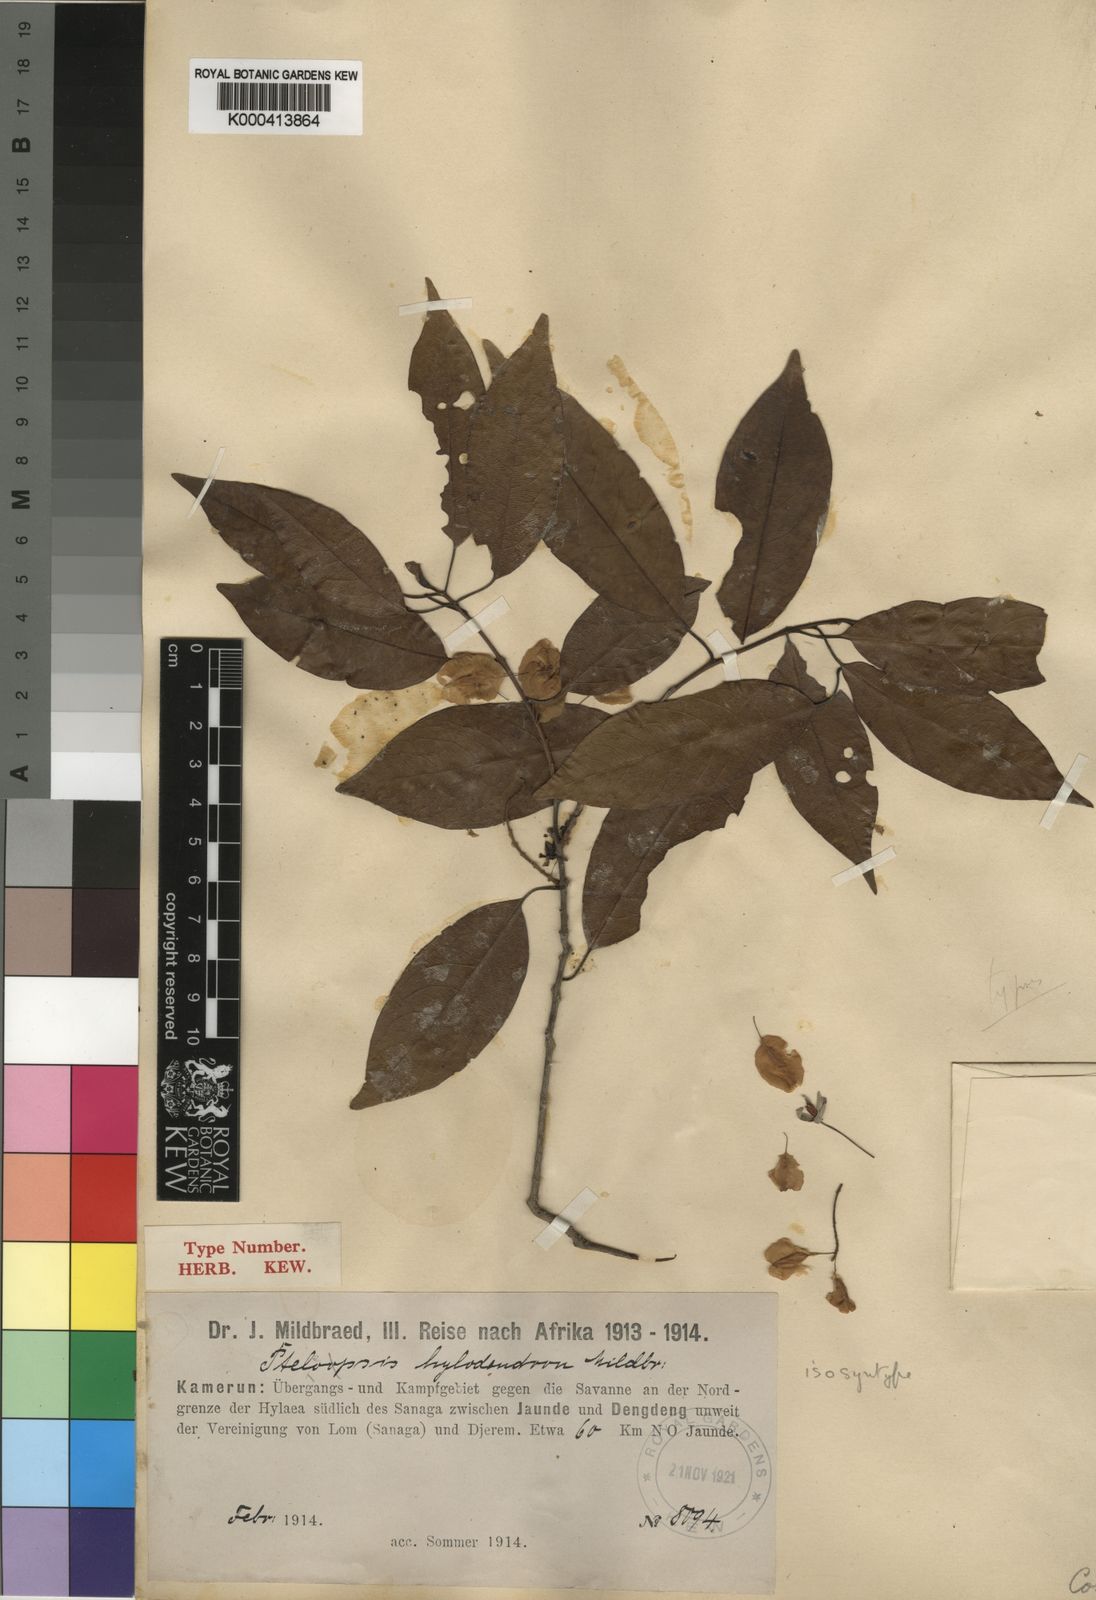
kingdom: Plantae
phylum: Tracheophyta
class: Magnoliopsida
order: Myrtales
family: Combretaceae
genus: Terminalia
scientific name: Terminalia hylodendron
